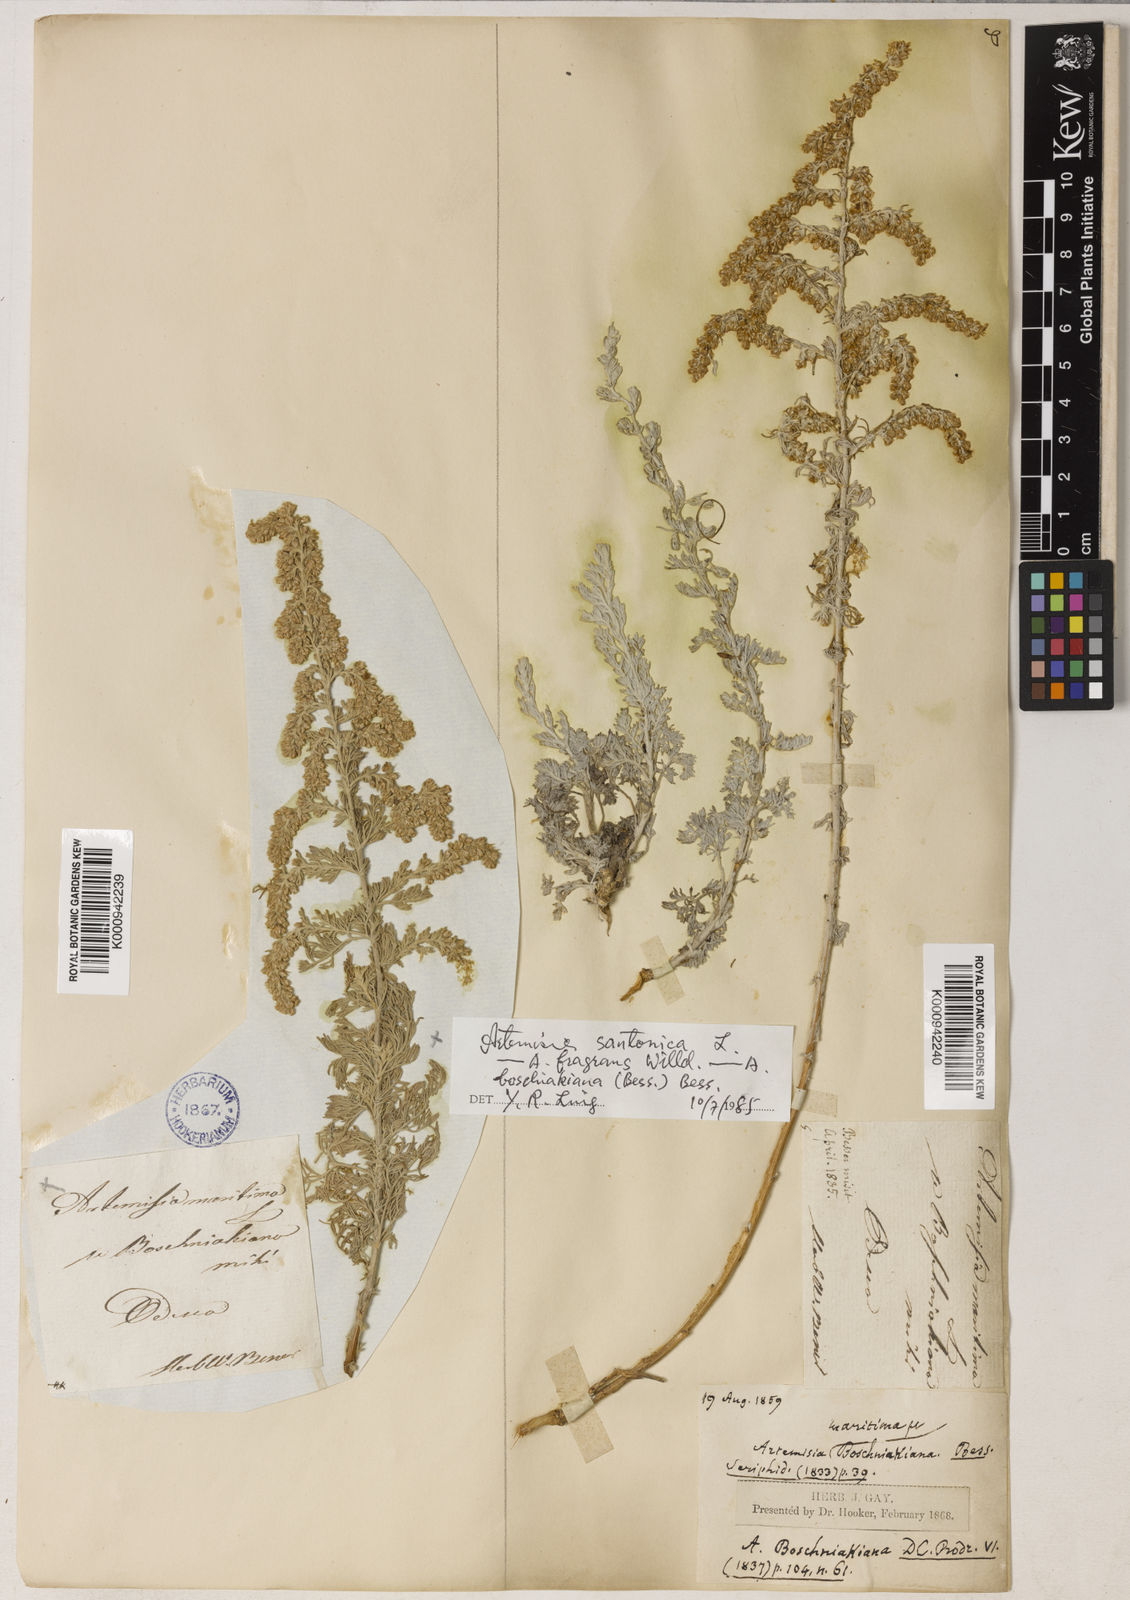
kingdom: Plantae
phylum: Tracheophyta
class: Magnoliopsida
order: Asterales
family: Asteraceae
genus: Seriphidium
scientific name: Seriphidium
